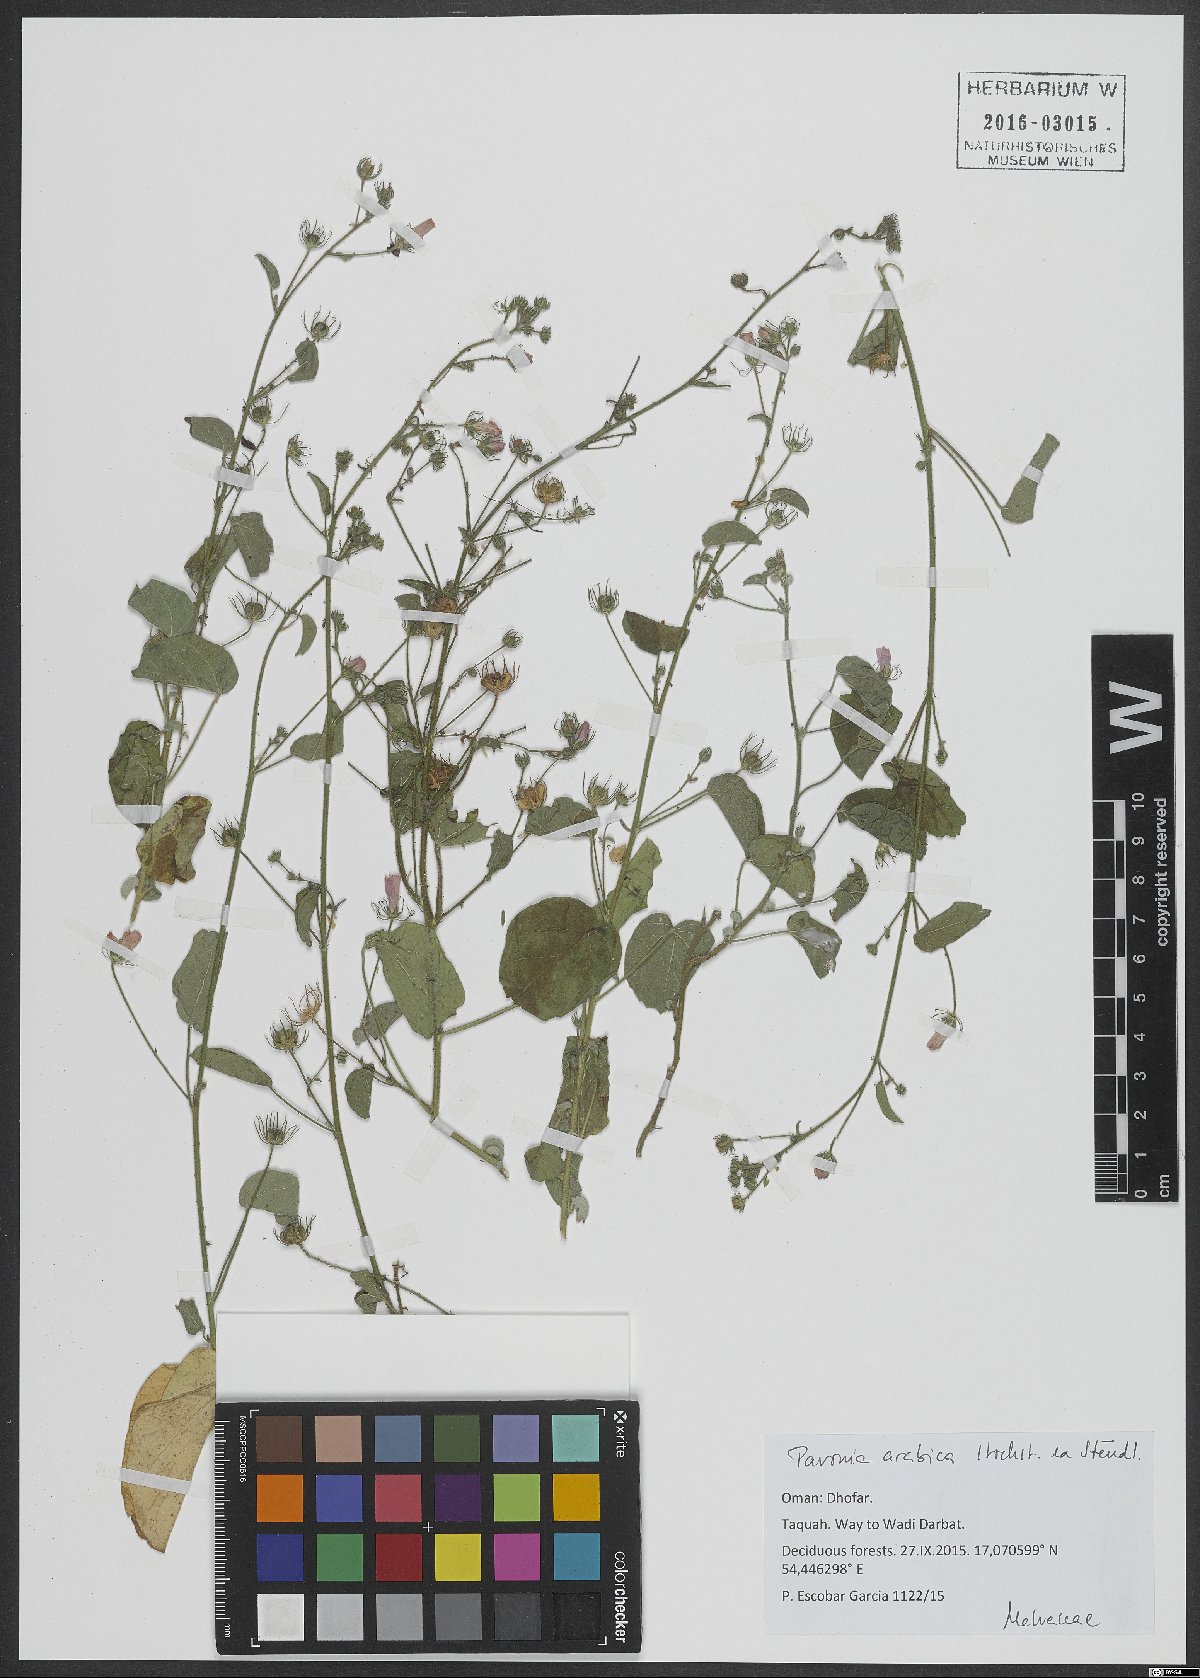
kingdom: Plantae
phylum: Tracheophyta
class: Magnoliopsida
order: Malvales
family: Malvaceae
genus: Pavonia
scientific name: Pavonia arabica
